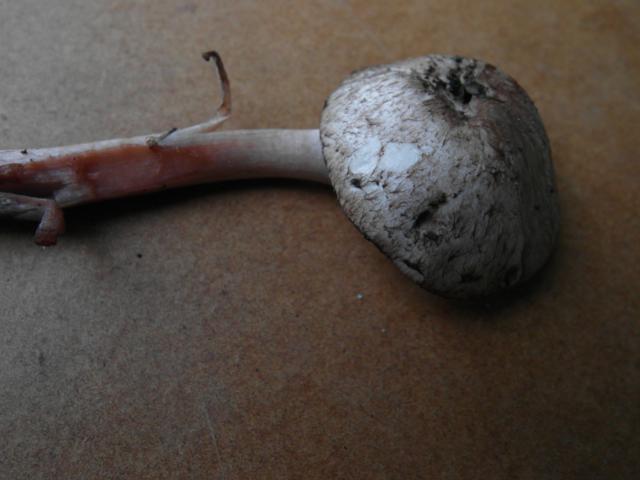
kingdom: Fungi
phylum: Basidiomycota
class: Agaricomycetes
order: Agaricales
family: Agaricaceae
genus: Agaricus
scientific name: Agaricus sylvaticus
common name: lille blod-champignon
